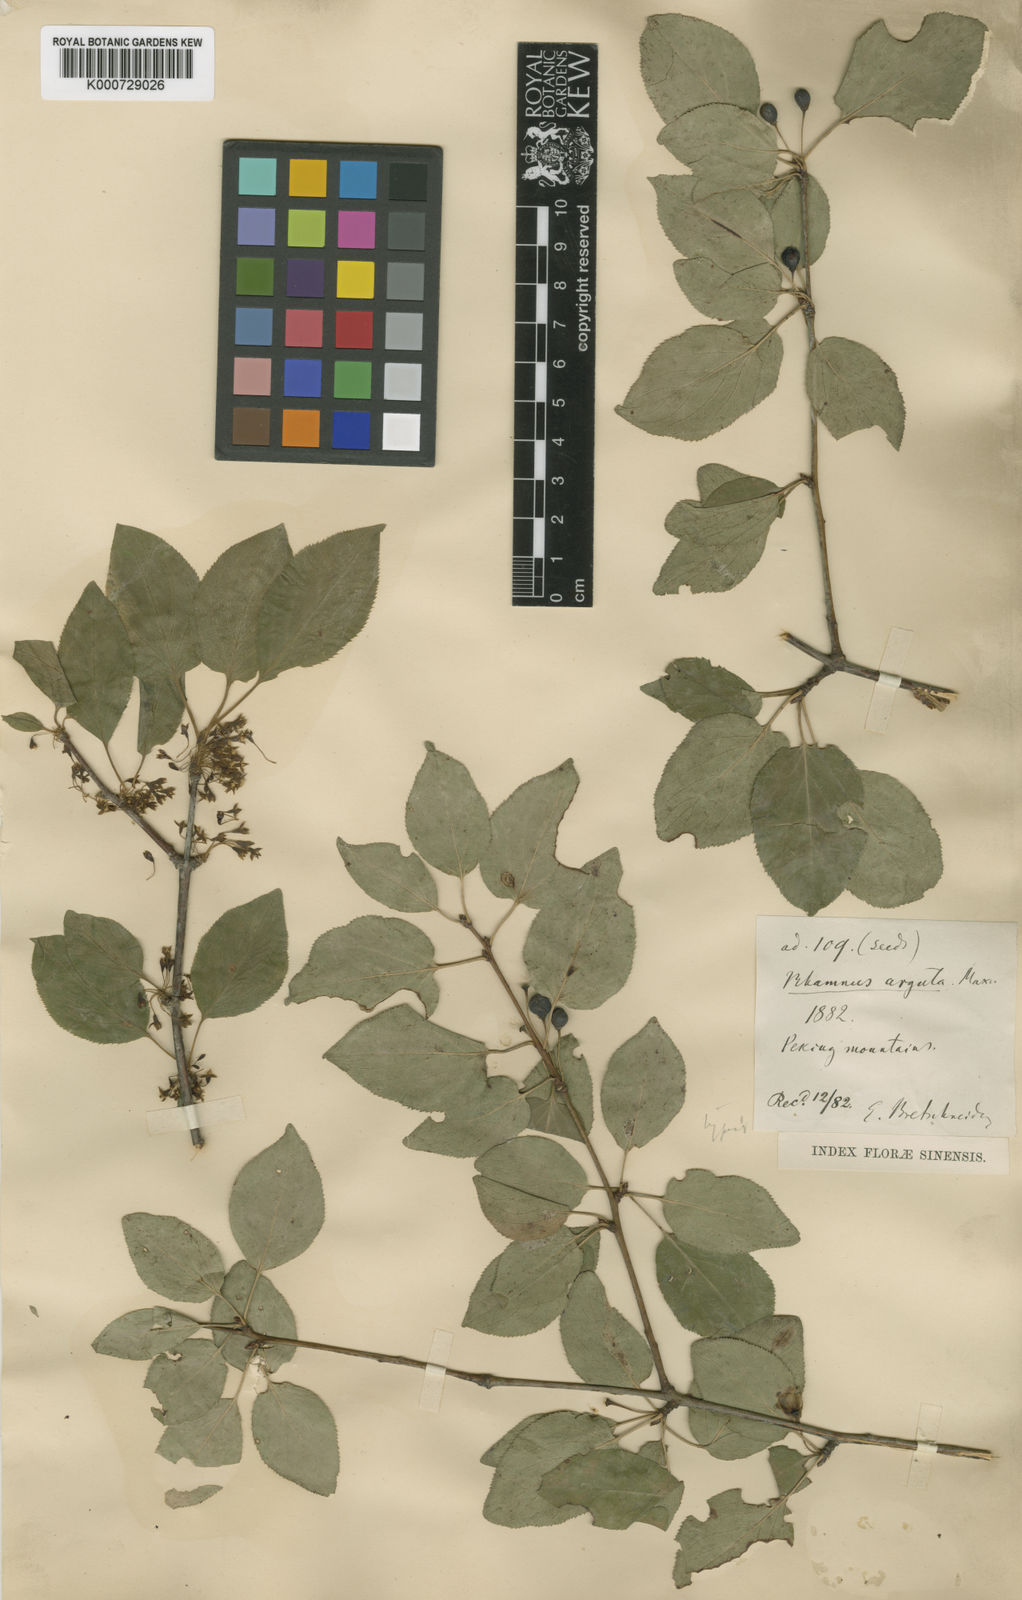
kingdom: Plantae
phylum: Tracheophyta
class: Magnoliopsida
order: Rosales
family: Rhamnaceae
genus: Rhamnus
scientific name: Rhamnus arguta
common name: Sharp-tooth buckthorn
